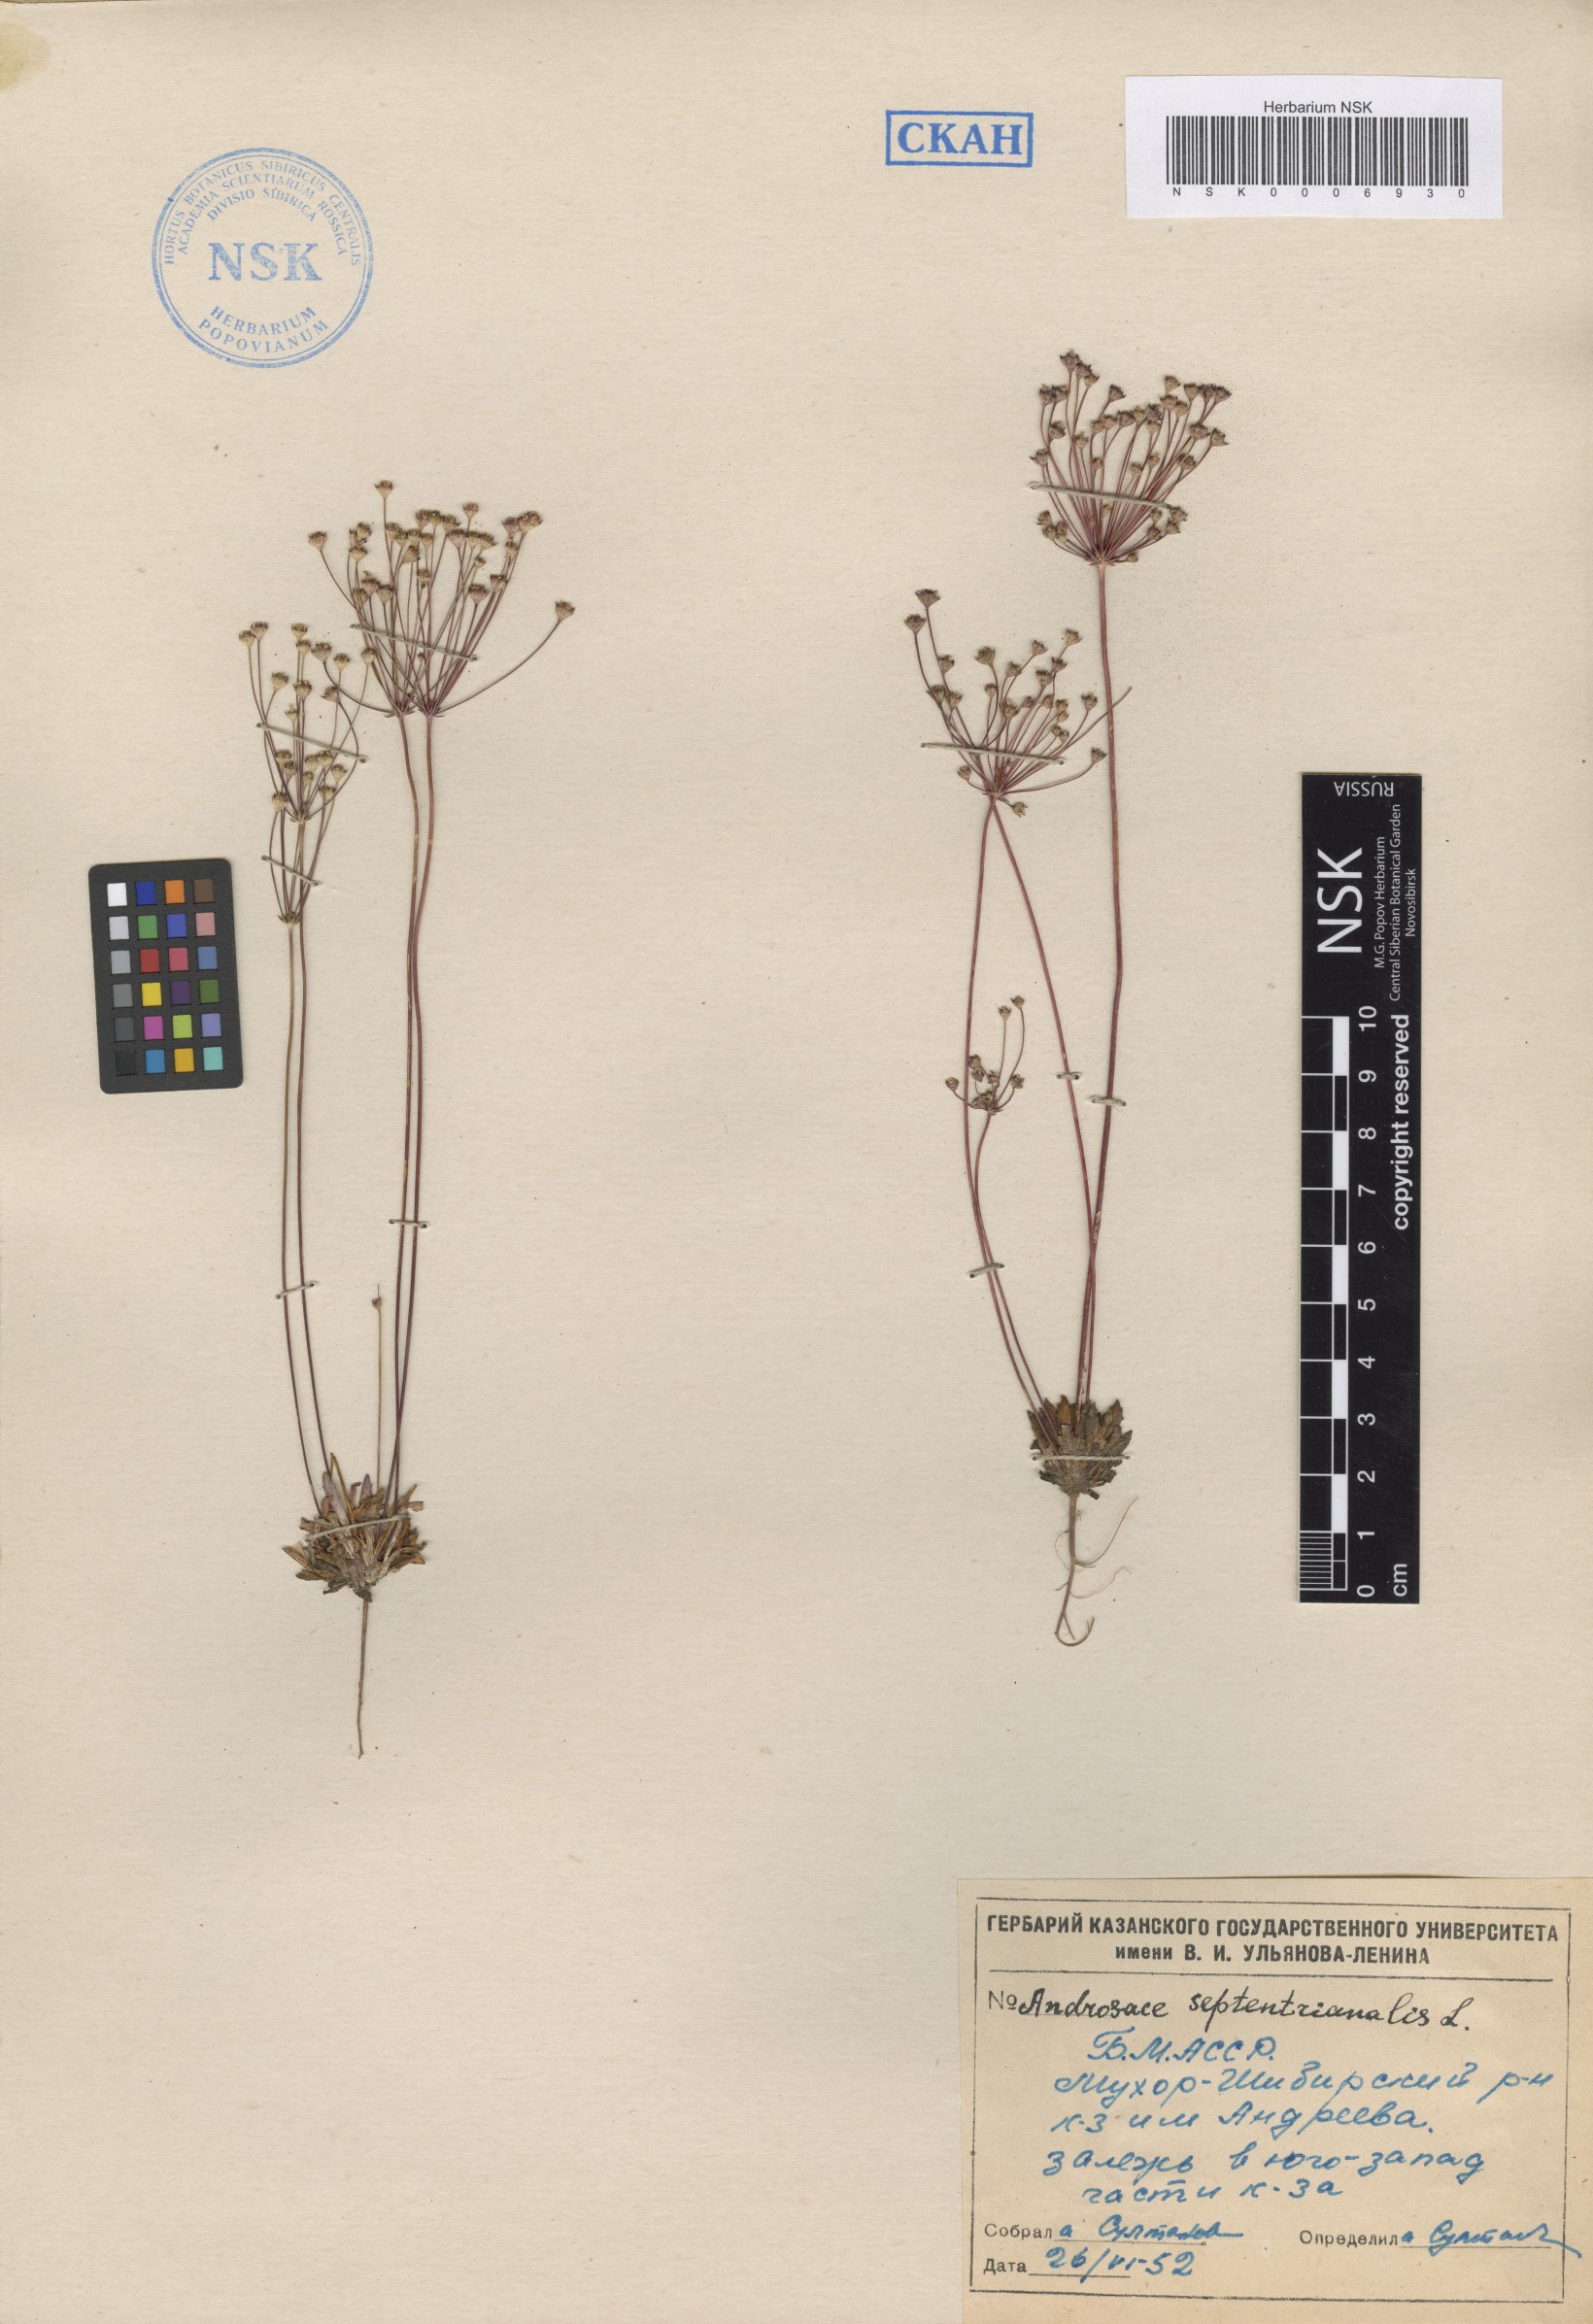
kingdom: Plantae
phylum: Tracheophyta
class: Magnoliopsida
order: Ericales
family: Primulaceae
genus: Androsace
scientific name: Androsace septentrionalis
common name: Hairy northern fairy-candelabra
